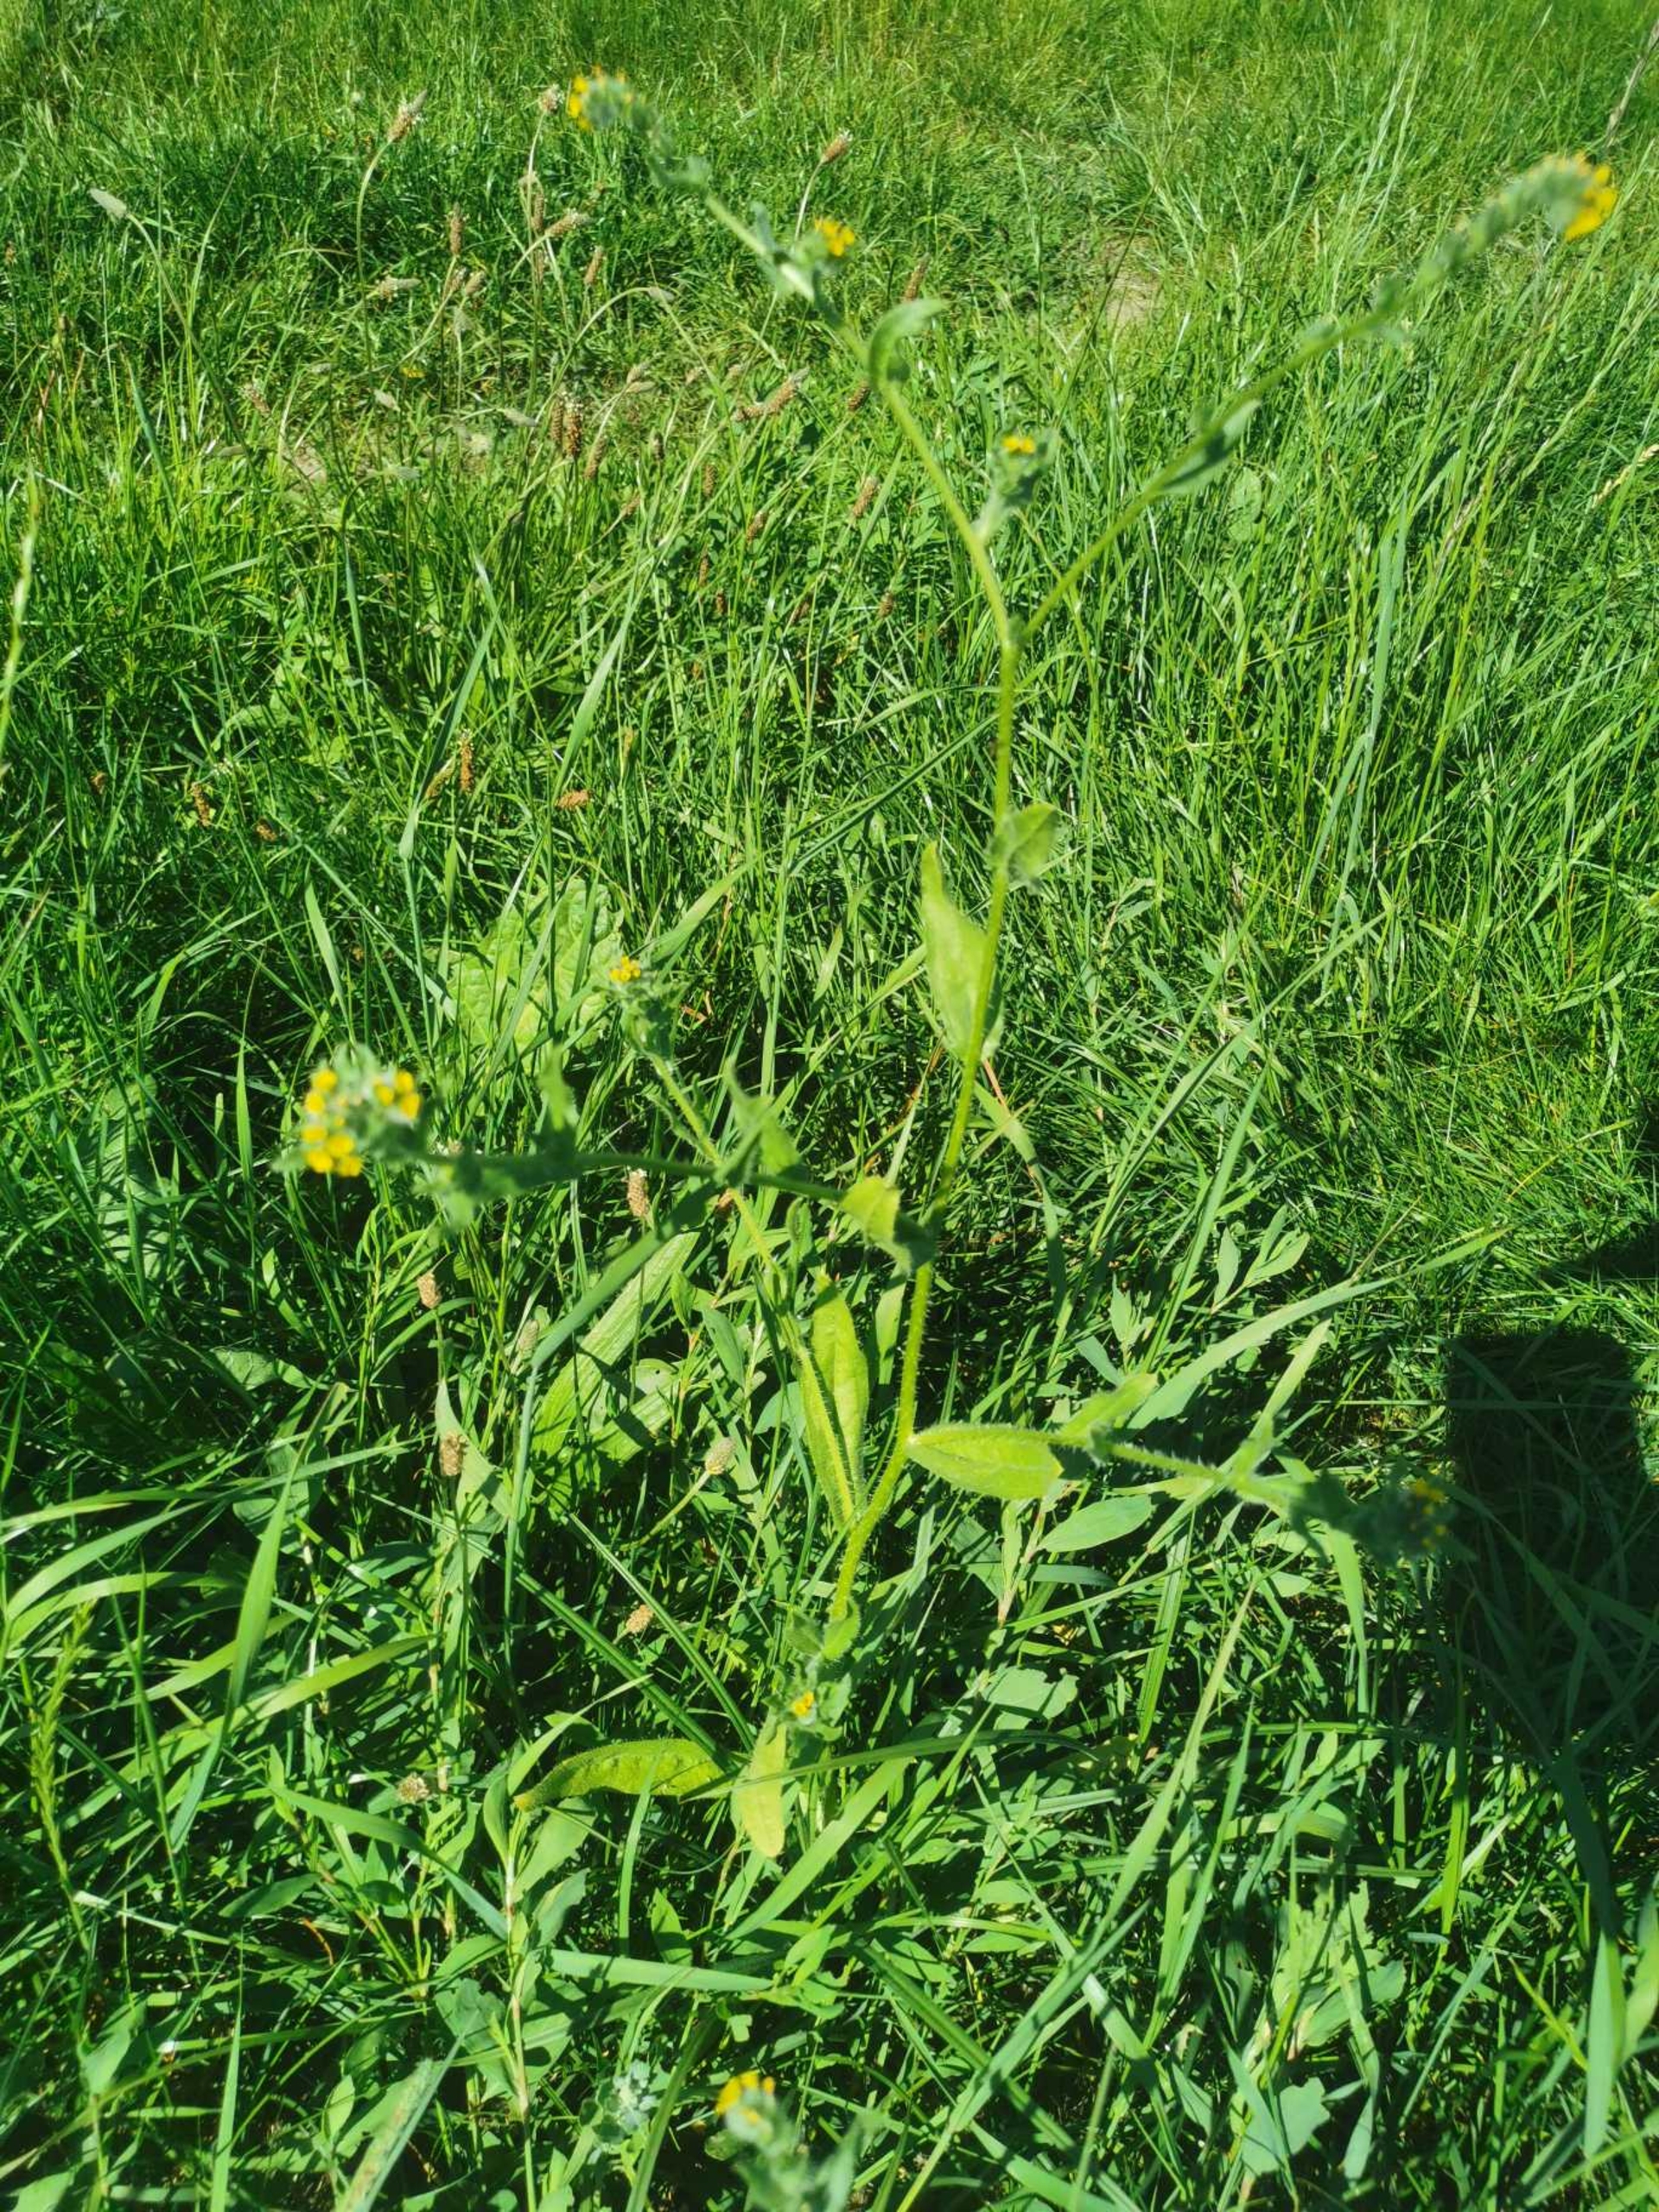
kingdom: Plantae
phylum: Tracheophyta
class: Magnoliopsida
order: Boraginales
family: Boraginaceae
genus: Amsinckia
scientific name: Amsinckia menziesii
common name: Småblomstret gulurt
